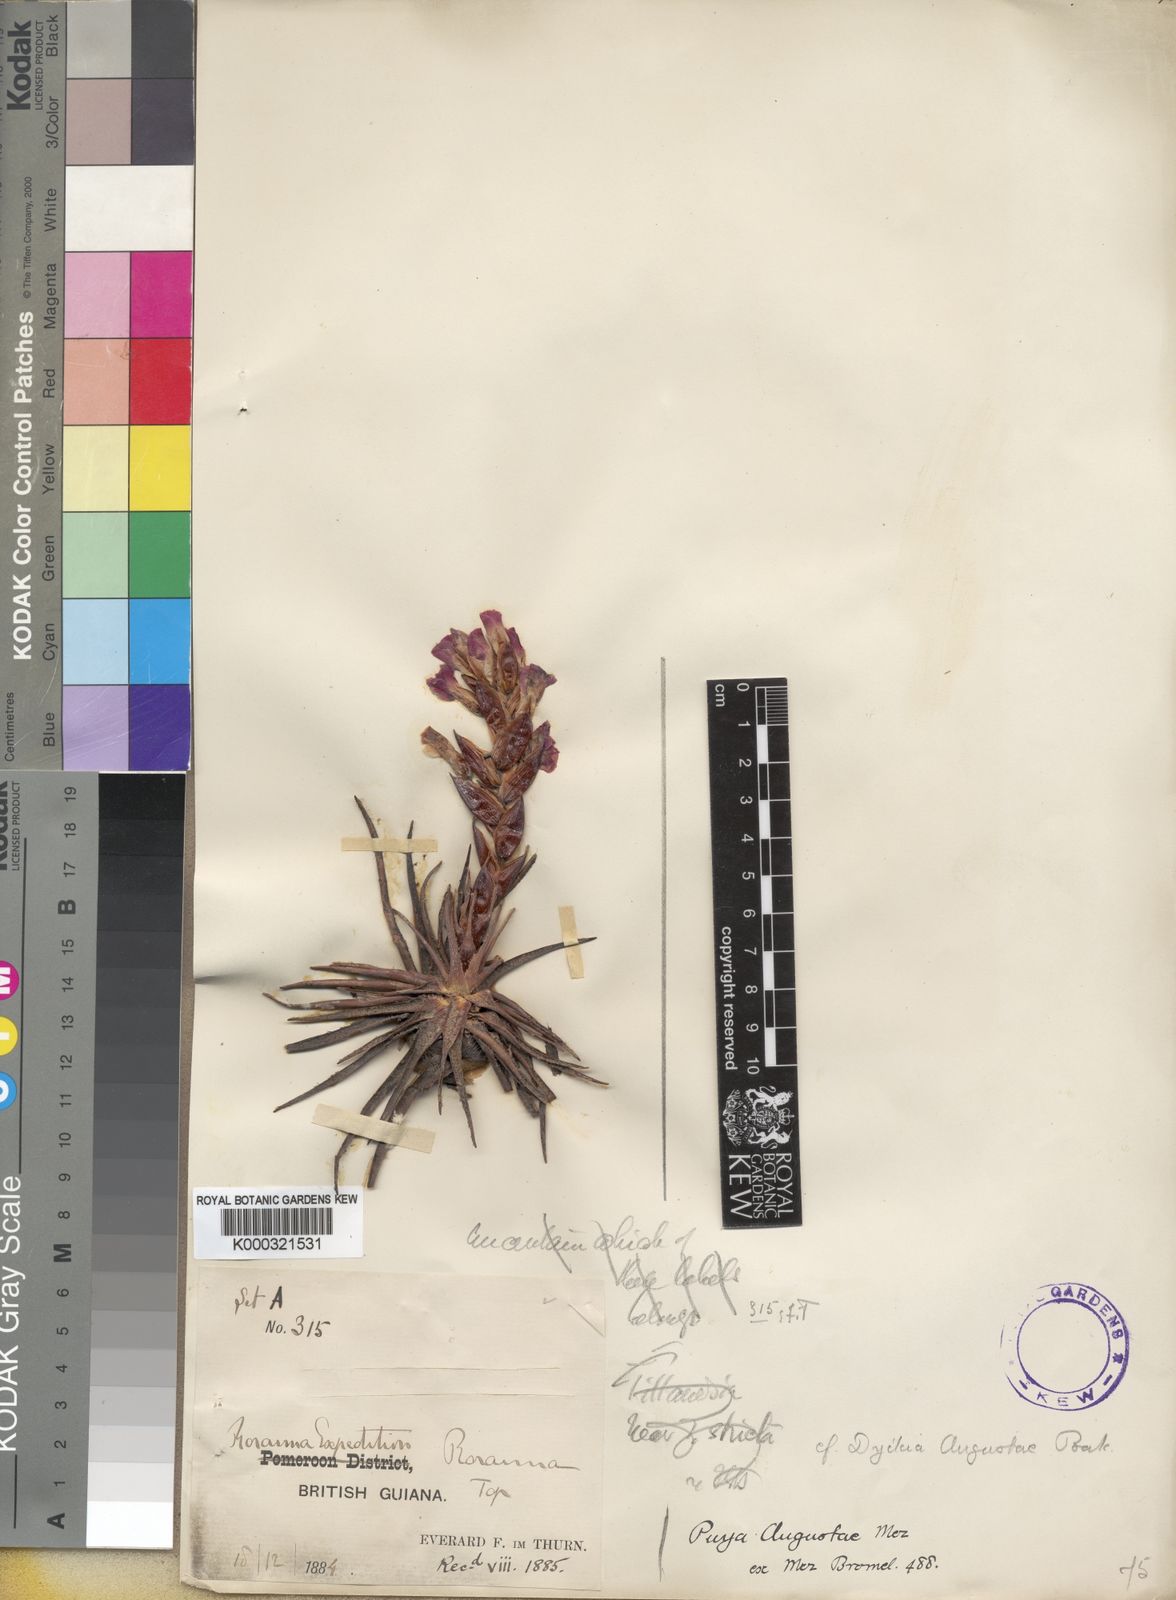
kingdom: Plantae
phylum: Tracheophyta
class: Liliopsida
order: Poales
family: Bromeliaceae
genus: Connellia
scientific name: Connellia quelchii
